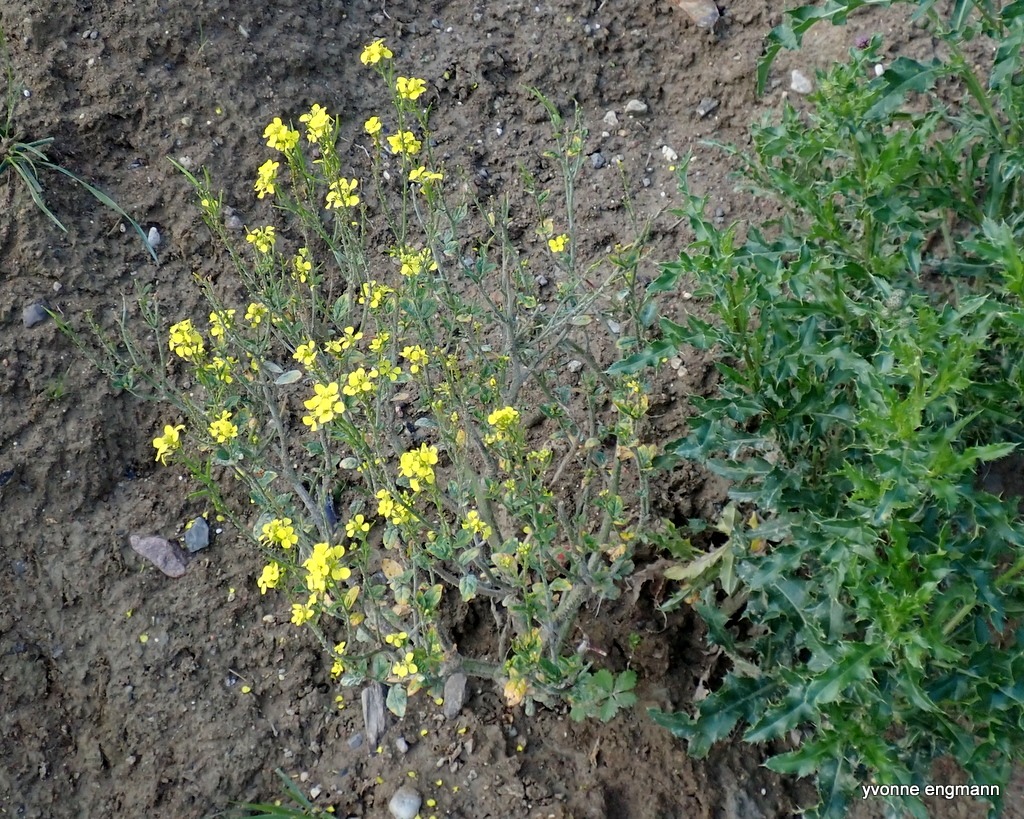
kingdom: Plantae
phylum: Tracheophyta
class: Magnoliopsida
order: Brassicales
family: Brassicaceae
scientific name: Brassicaceae
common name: Korsblomstfamilien
